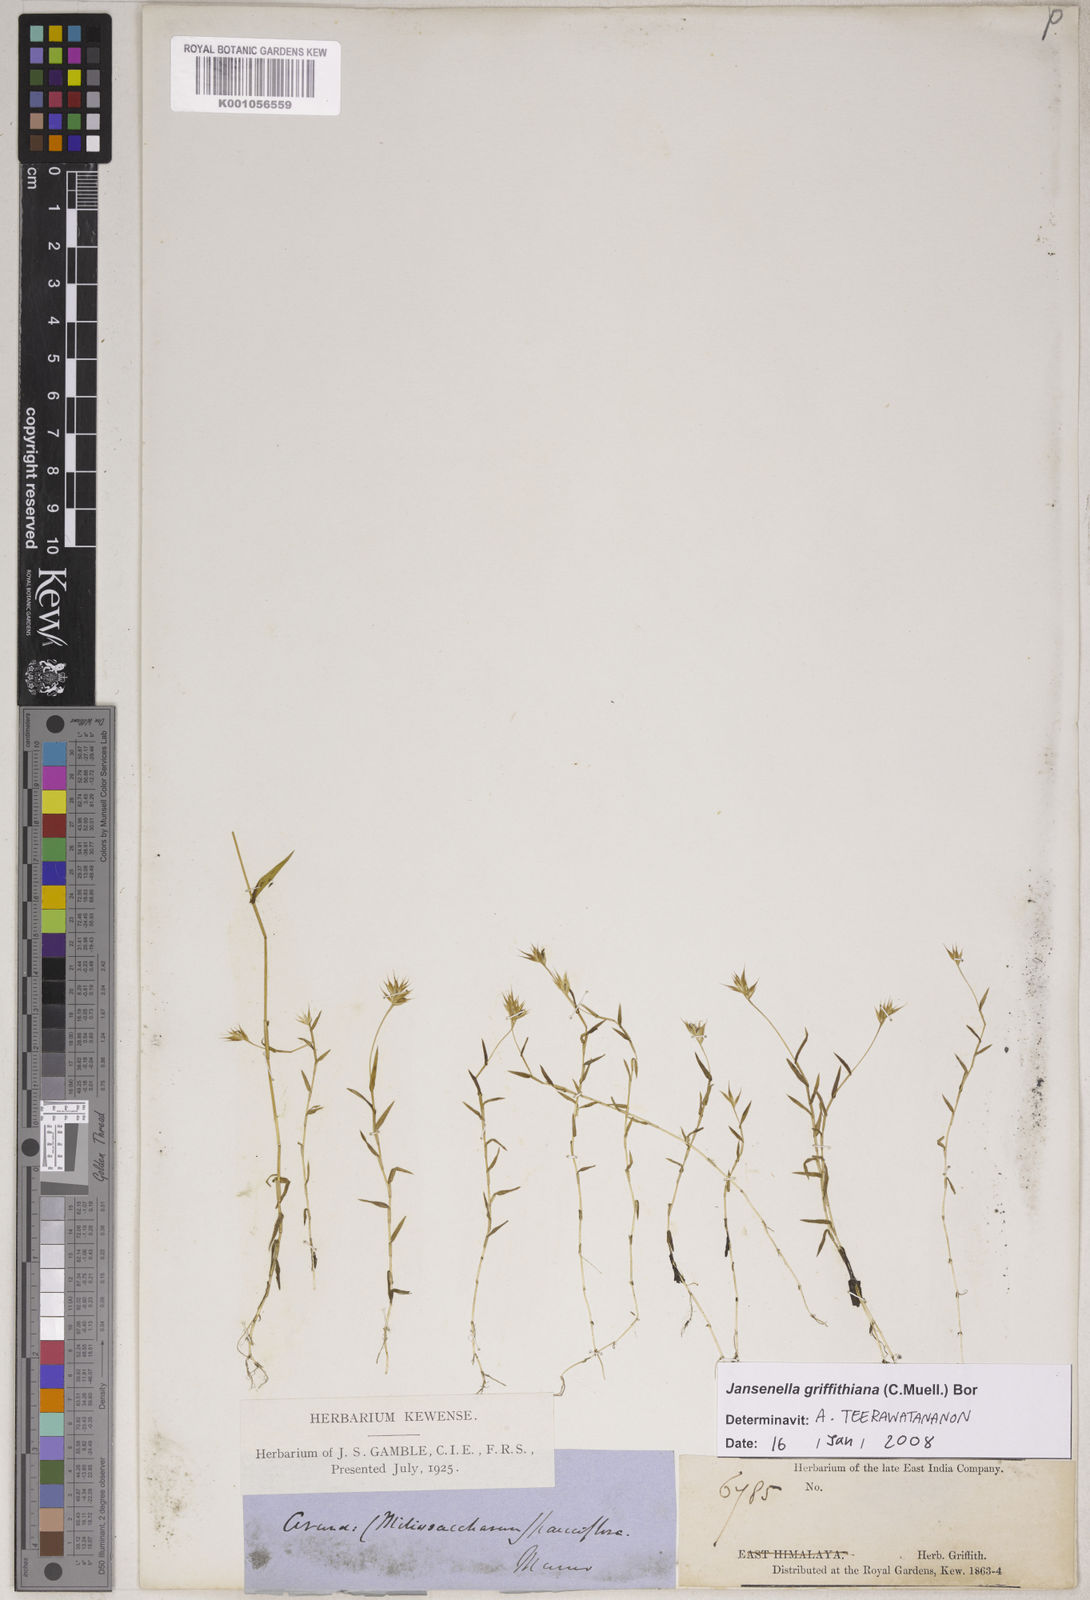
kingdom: Plantae
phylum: Tracheophyta
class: Liliopsida
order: Poales
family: Poaceae
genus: Jansenella
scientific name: Jansenella griffithiana
